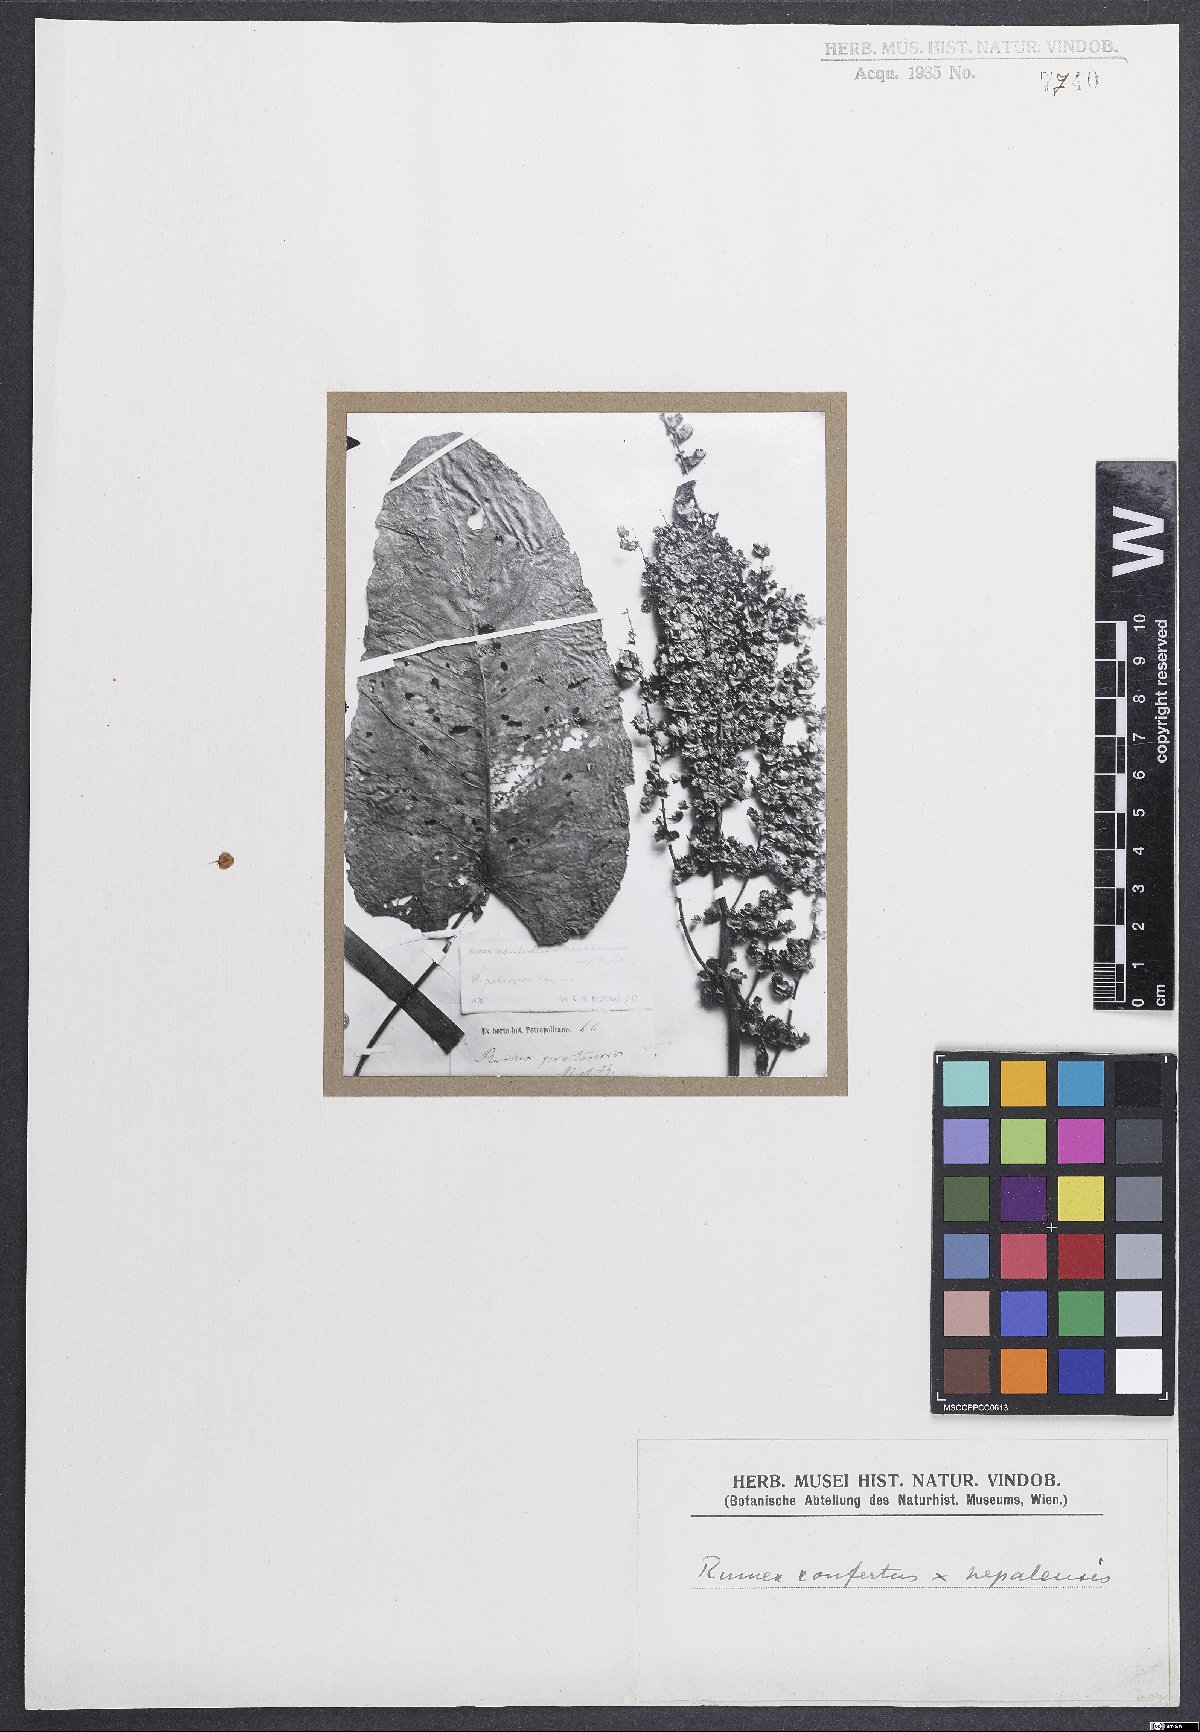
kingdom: Plantae
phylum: Tracheophyta
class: Magnoliopsida
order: Caryophyllales
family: Polygonaceae
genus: Rumex
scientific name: Rumex
